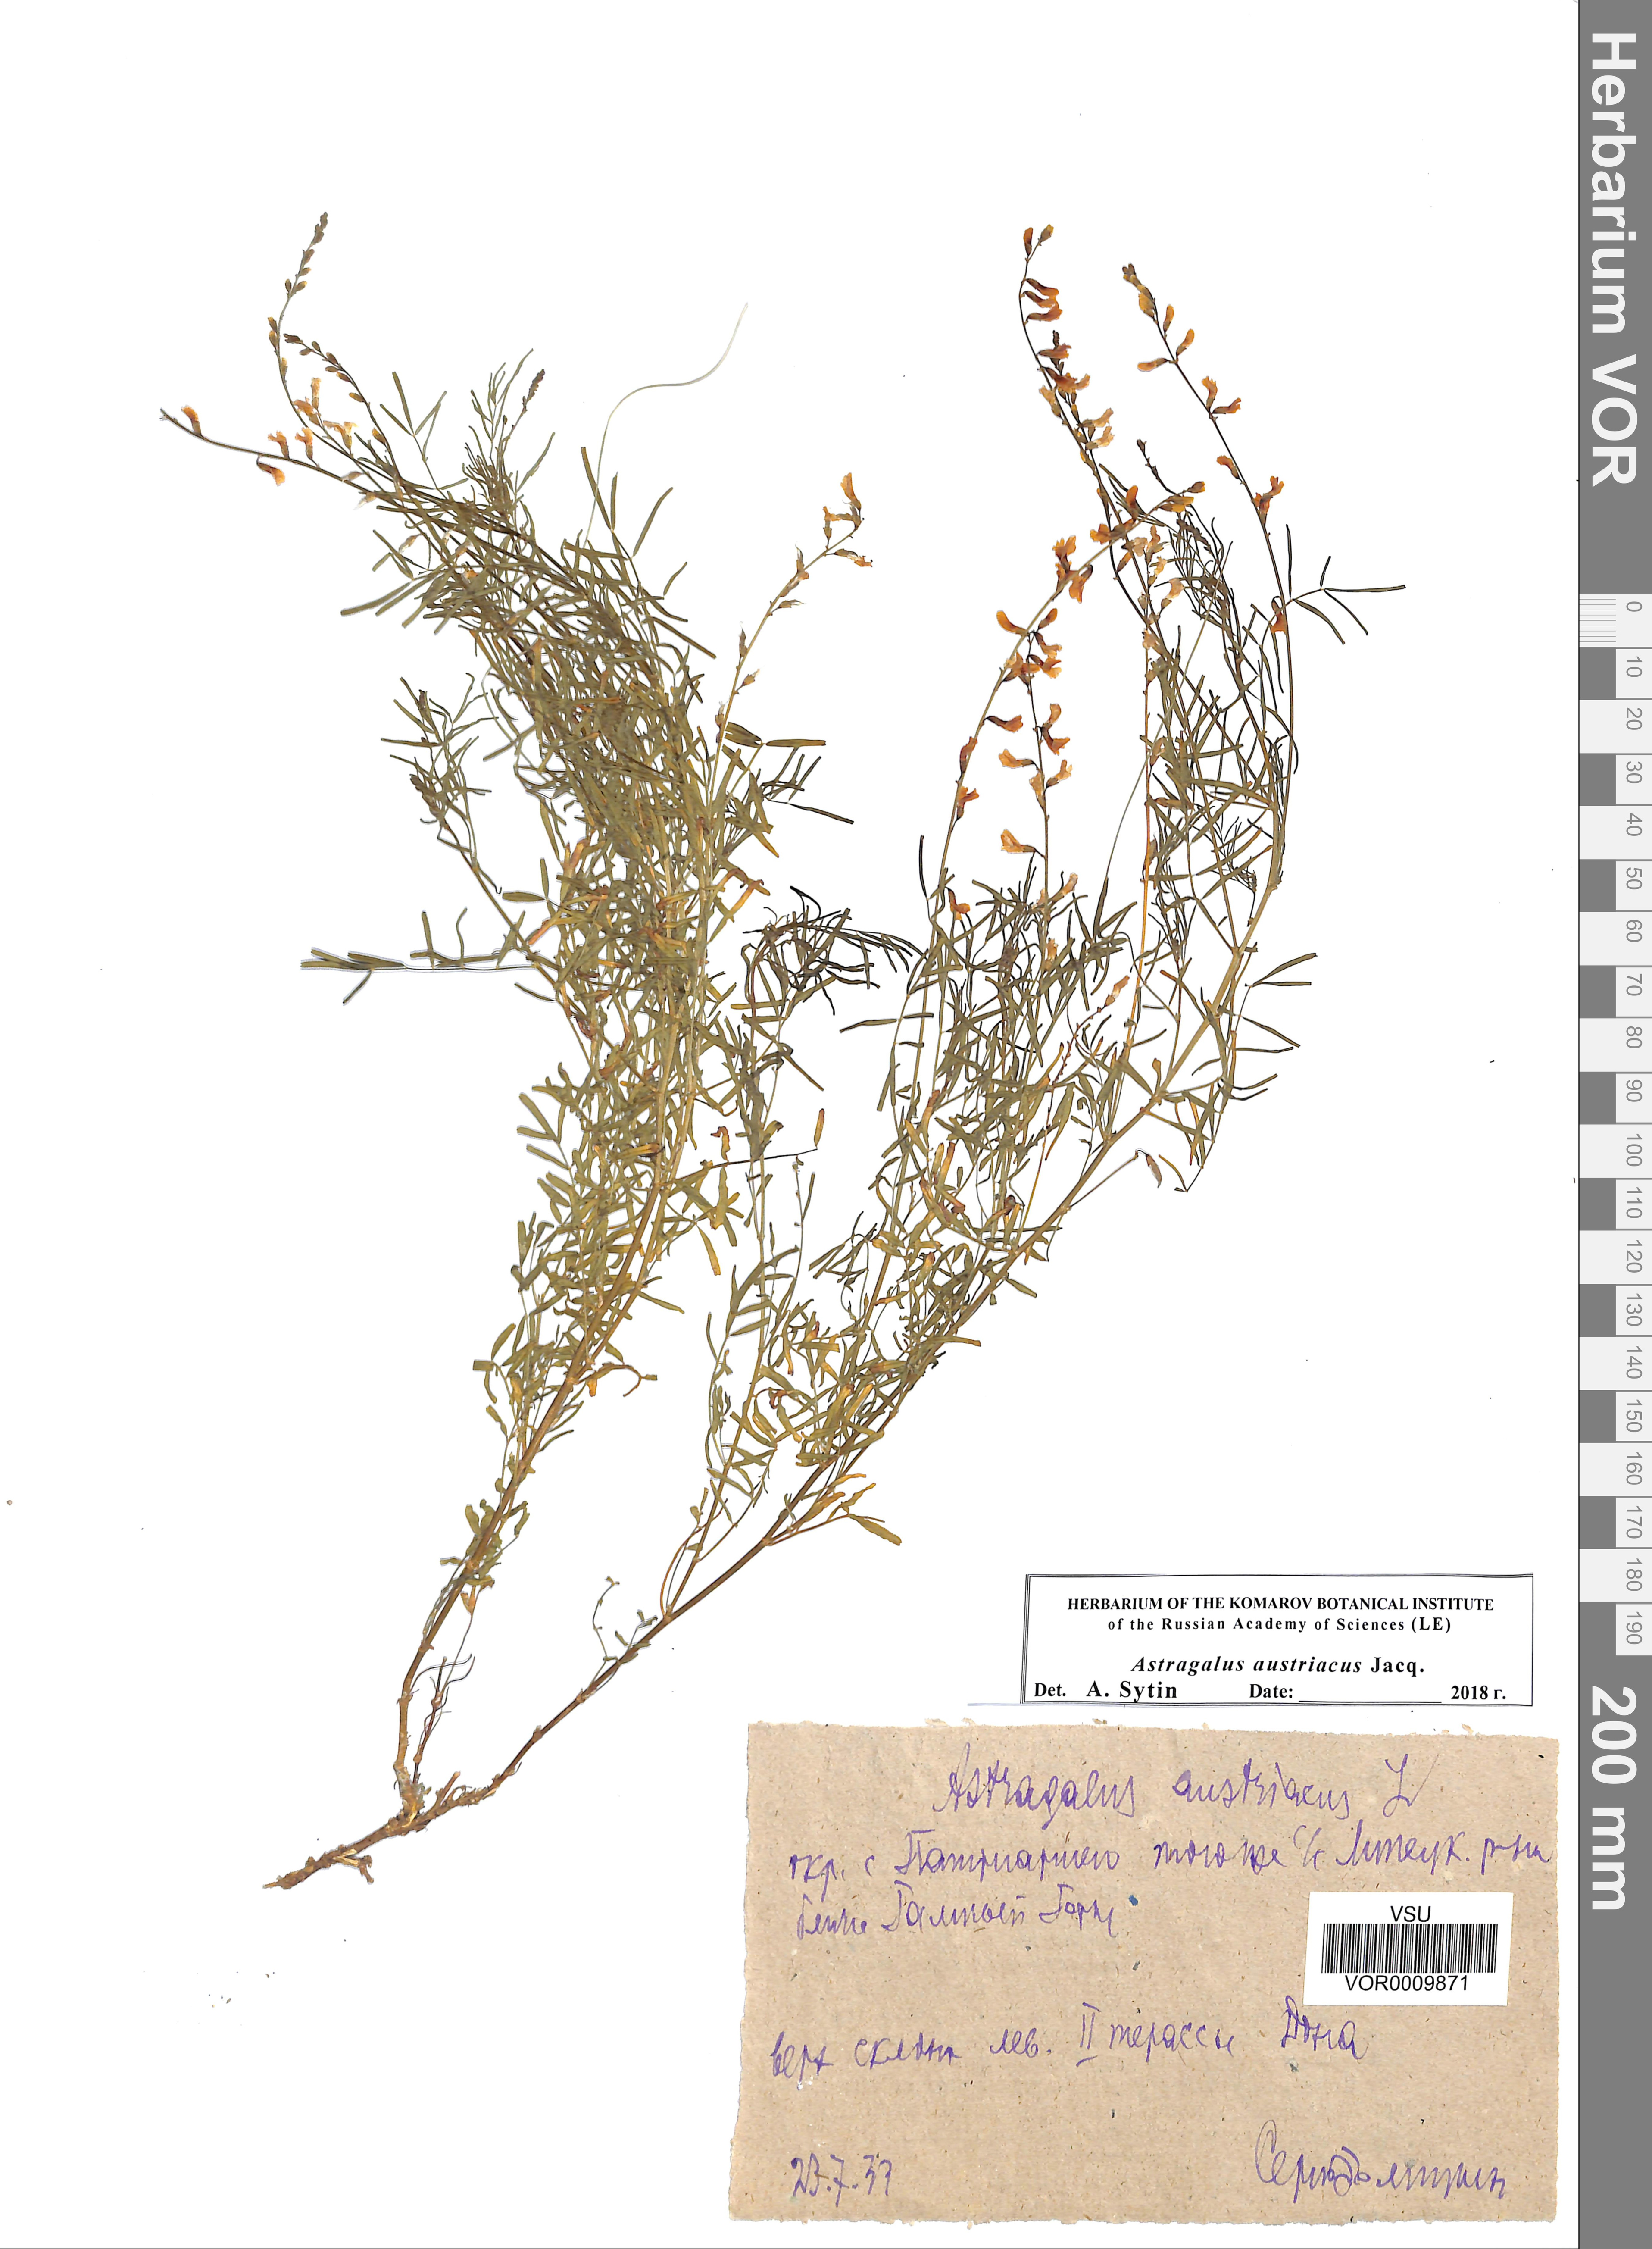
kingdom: Plantae
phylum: Tracheophyta
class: Magnoliopsida
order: Fabales
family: Fabaceae
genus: Astragalus
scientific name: Astragalus austriacus
